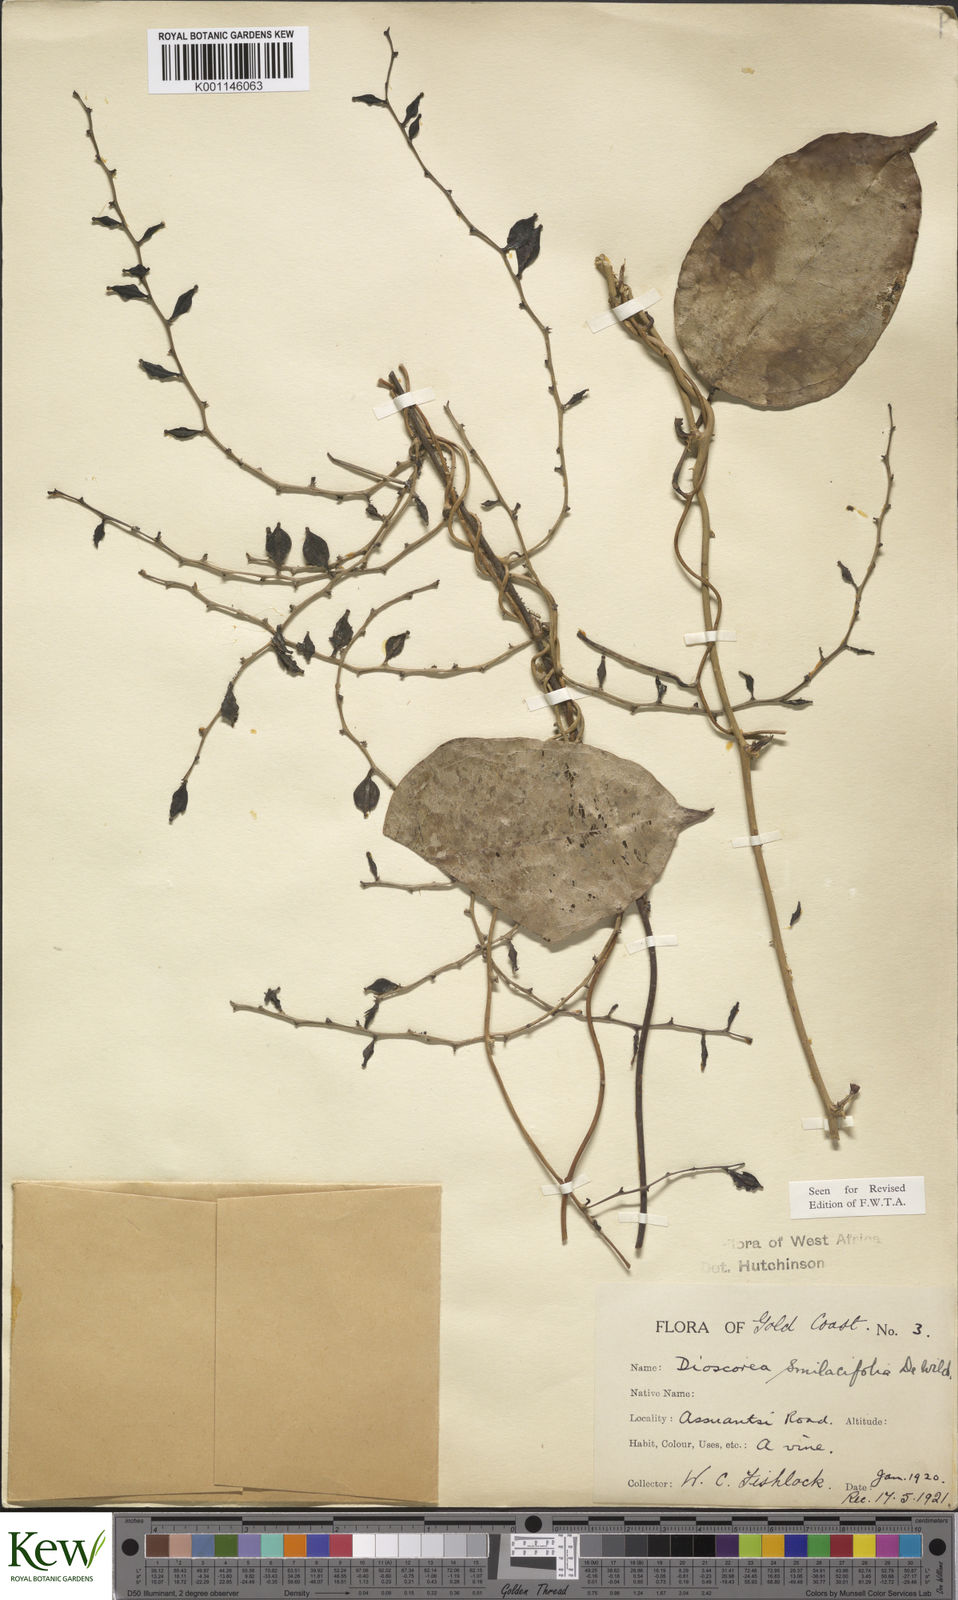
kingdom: Plantae
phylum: Tracheophyta
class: Liliopsida
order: Dioscoreales
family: Dioscoreaceae
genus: Dioscorea
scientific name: Dioscorea smilacifolia
